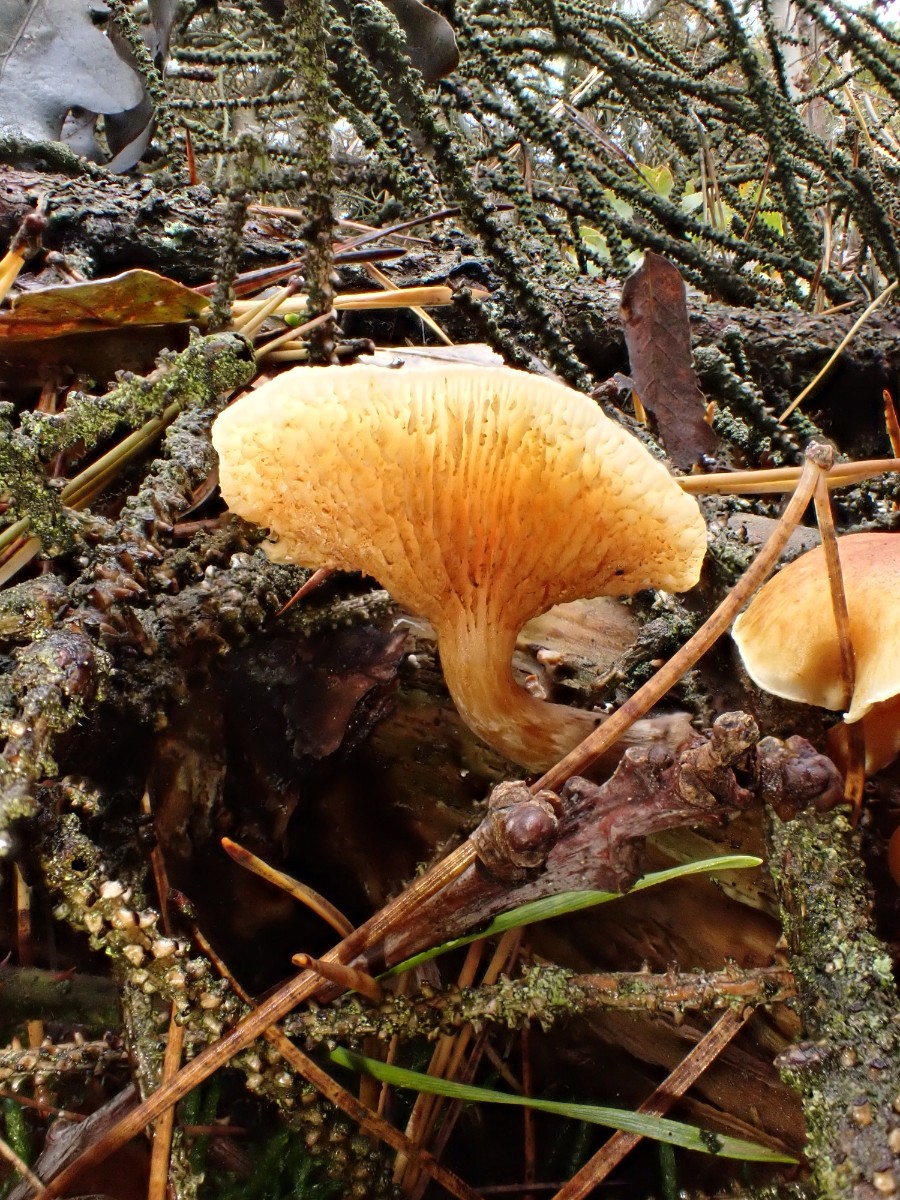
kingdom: Fungi
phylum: Basidiomycota
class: Agaricomycetes
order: Agaricales
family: Hymenogastraceae
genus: Gymnopilus
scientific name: Gymnopilus penetrans
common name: plettet flammehat
